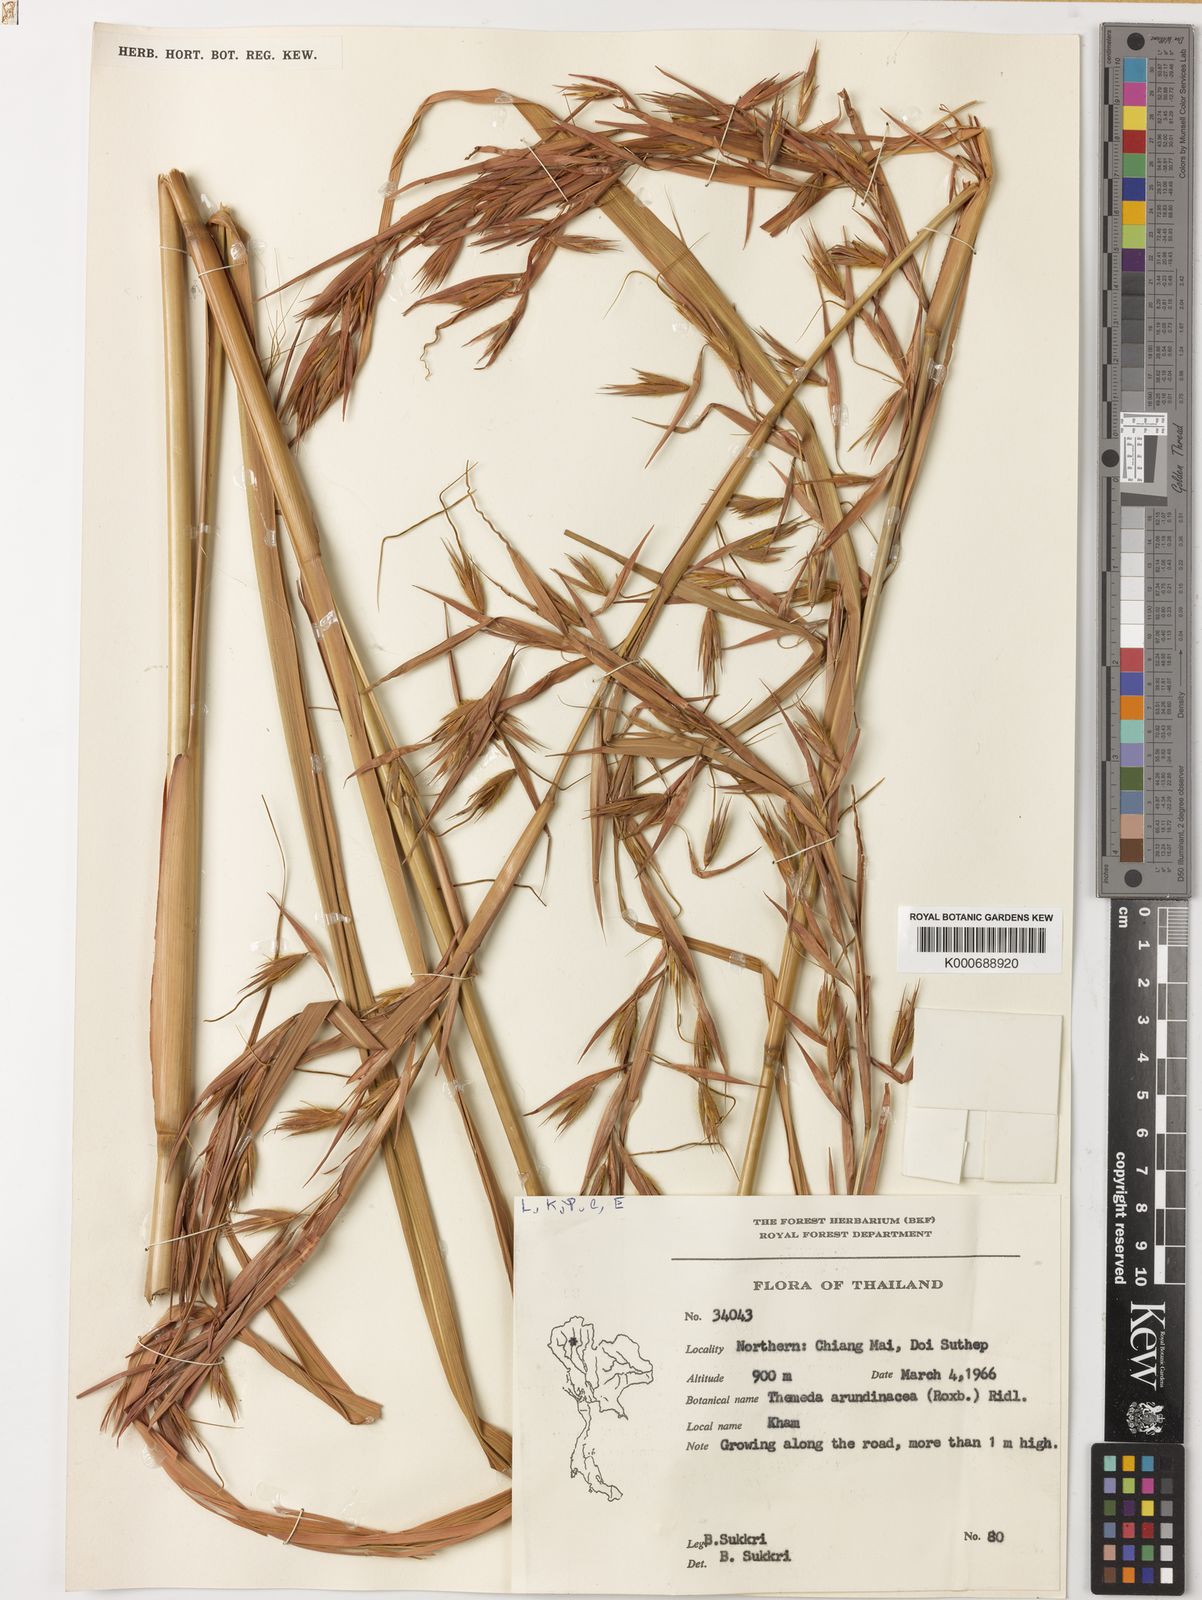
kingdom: Plantae
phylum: Tracheophyta
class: Liliopsida
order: Poales
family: Poaceae
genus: Themeda
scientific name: Themeda arundinacea
